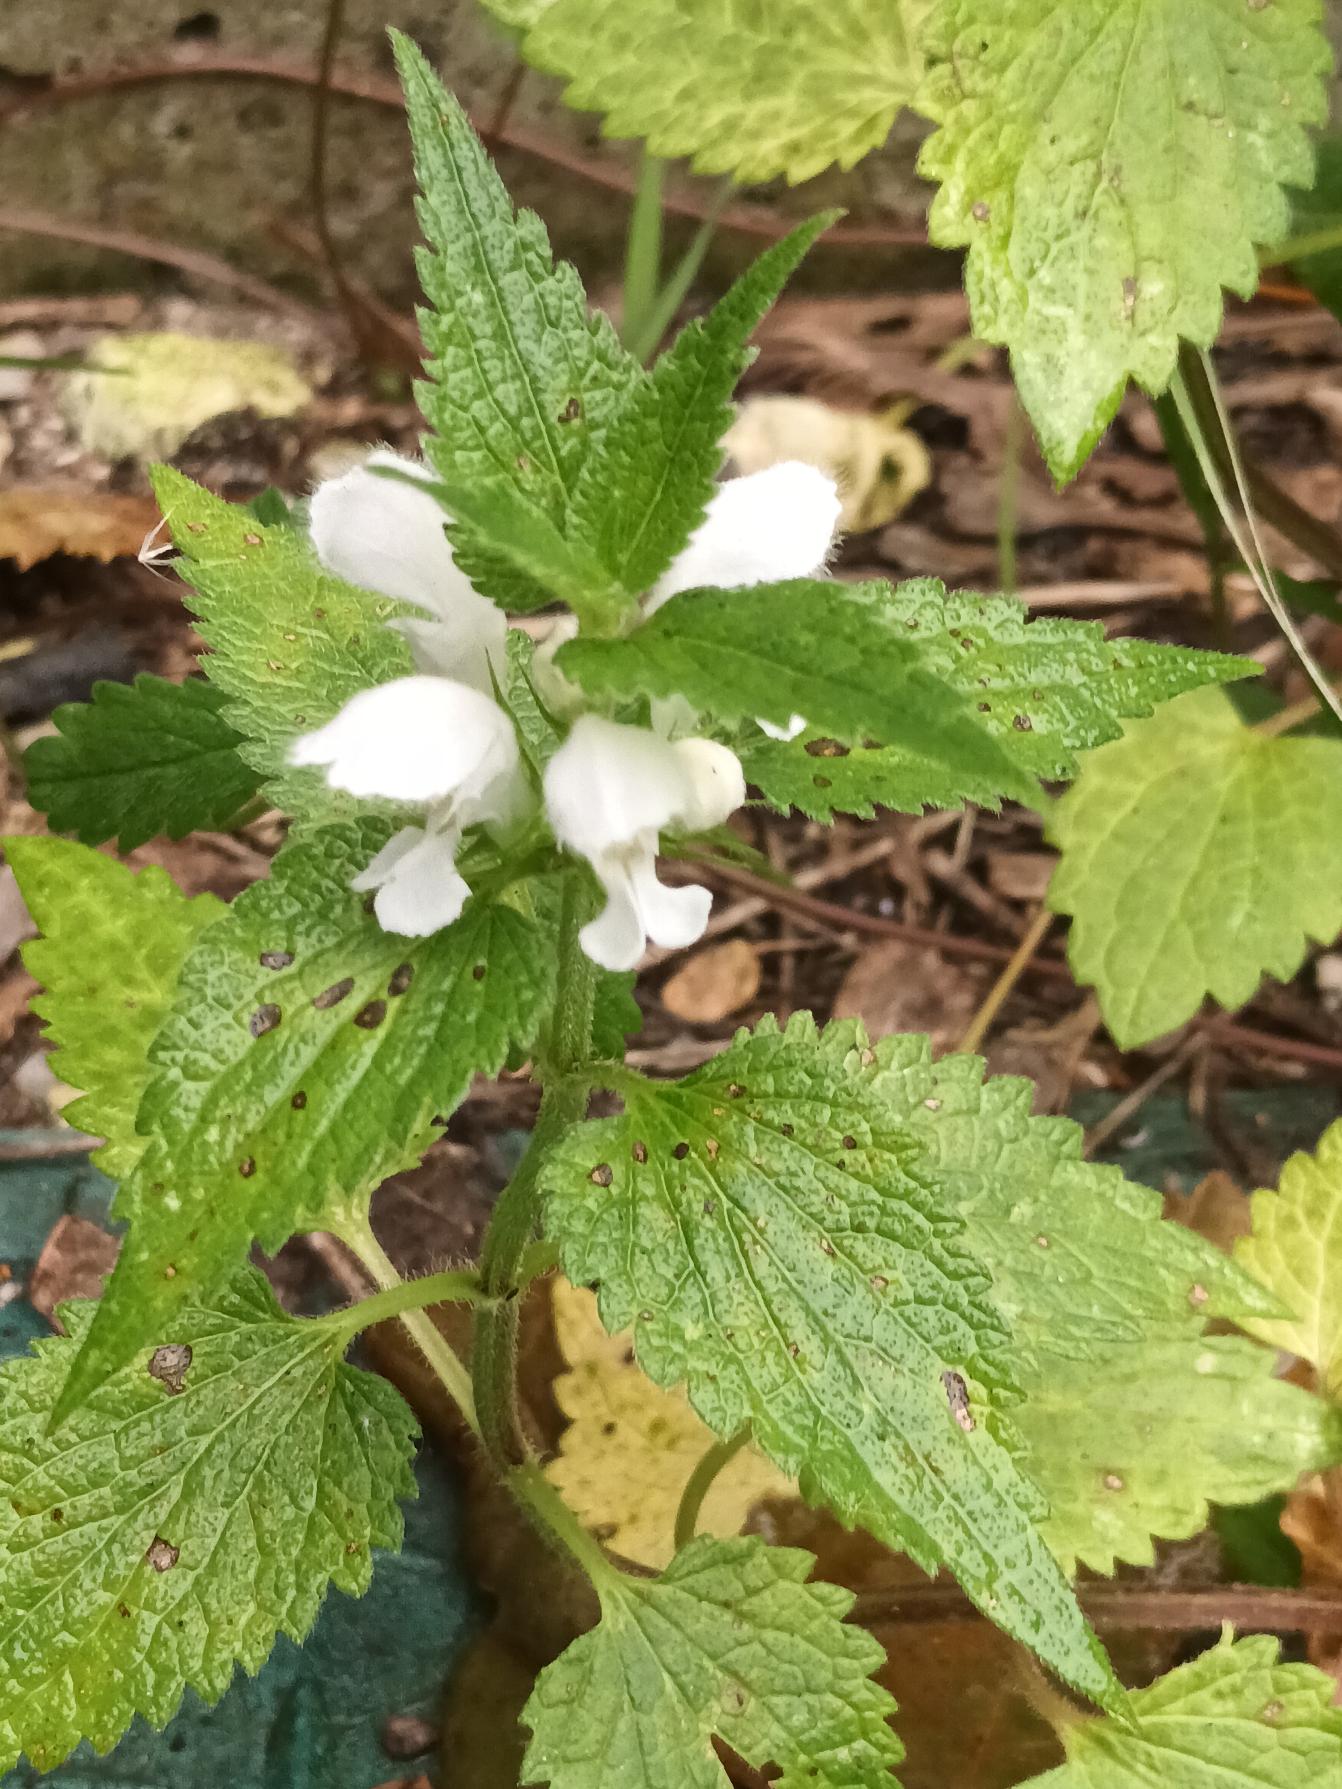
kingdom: Plantae
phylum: Tracheophyta
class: Magnoliopsida
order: Lamiales
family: Lamiaceae
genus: Lamium
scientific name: Lamium album
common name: Døvnælde
